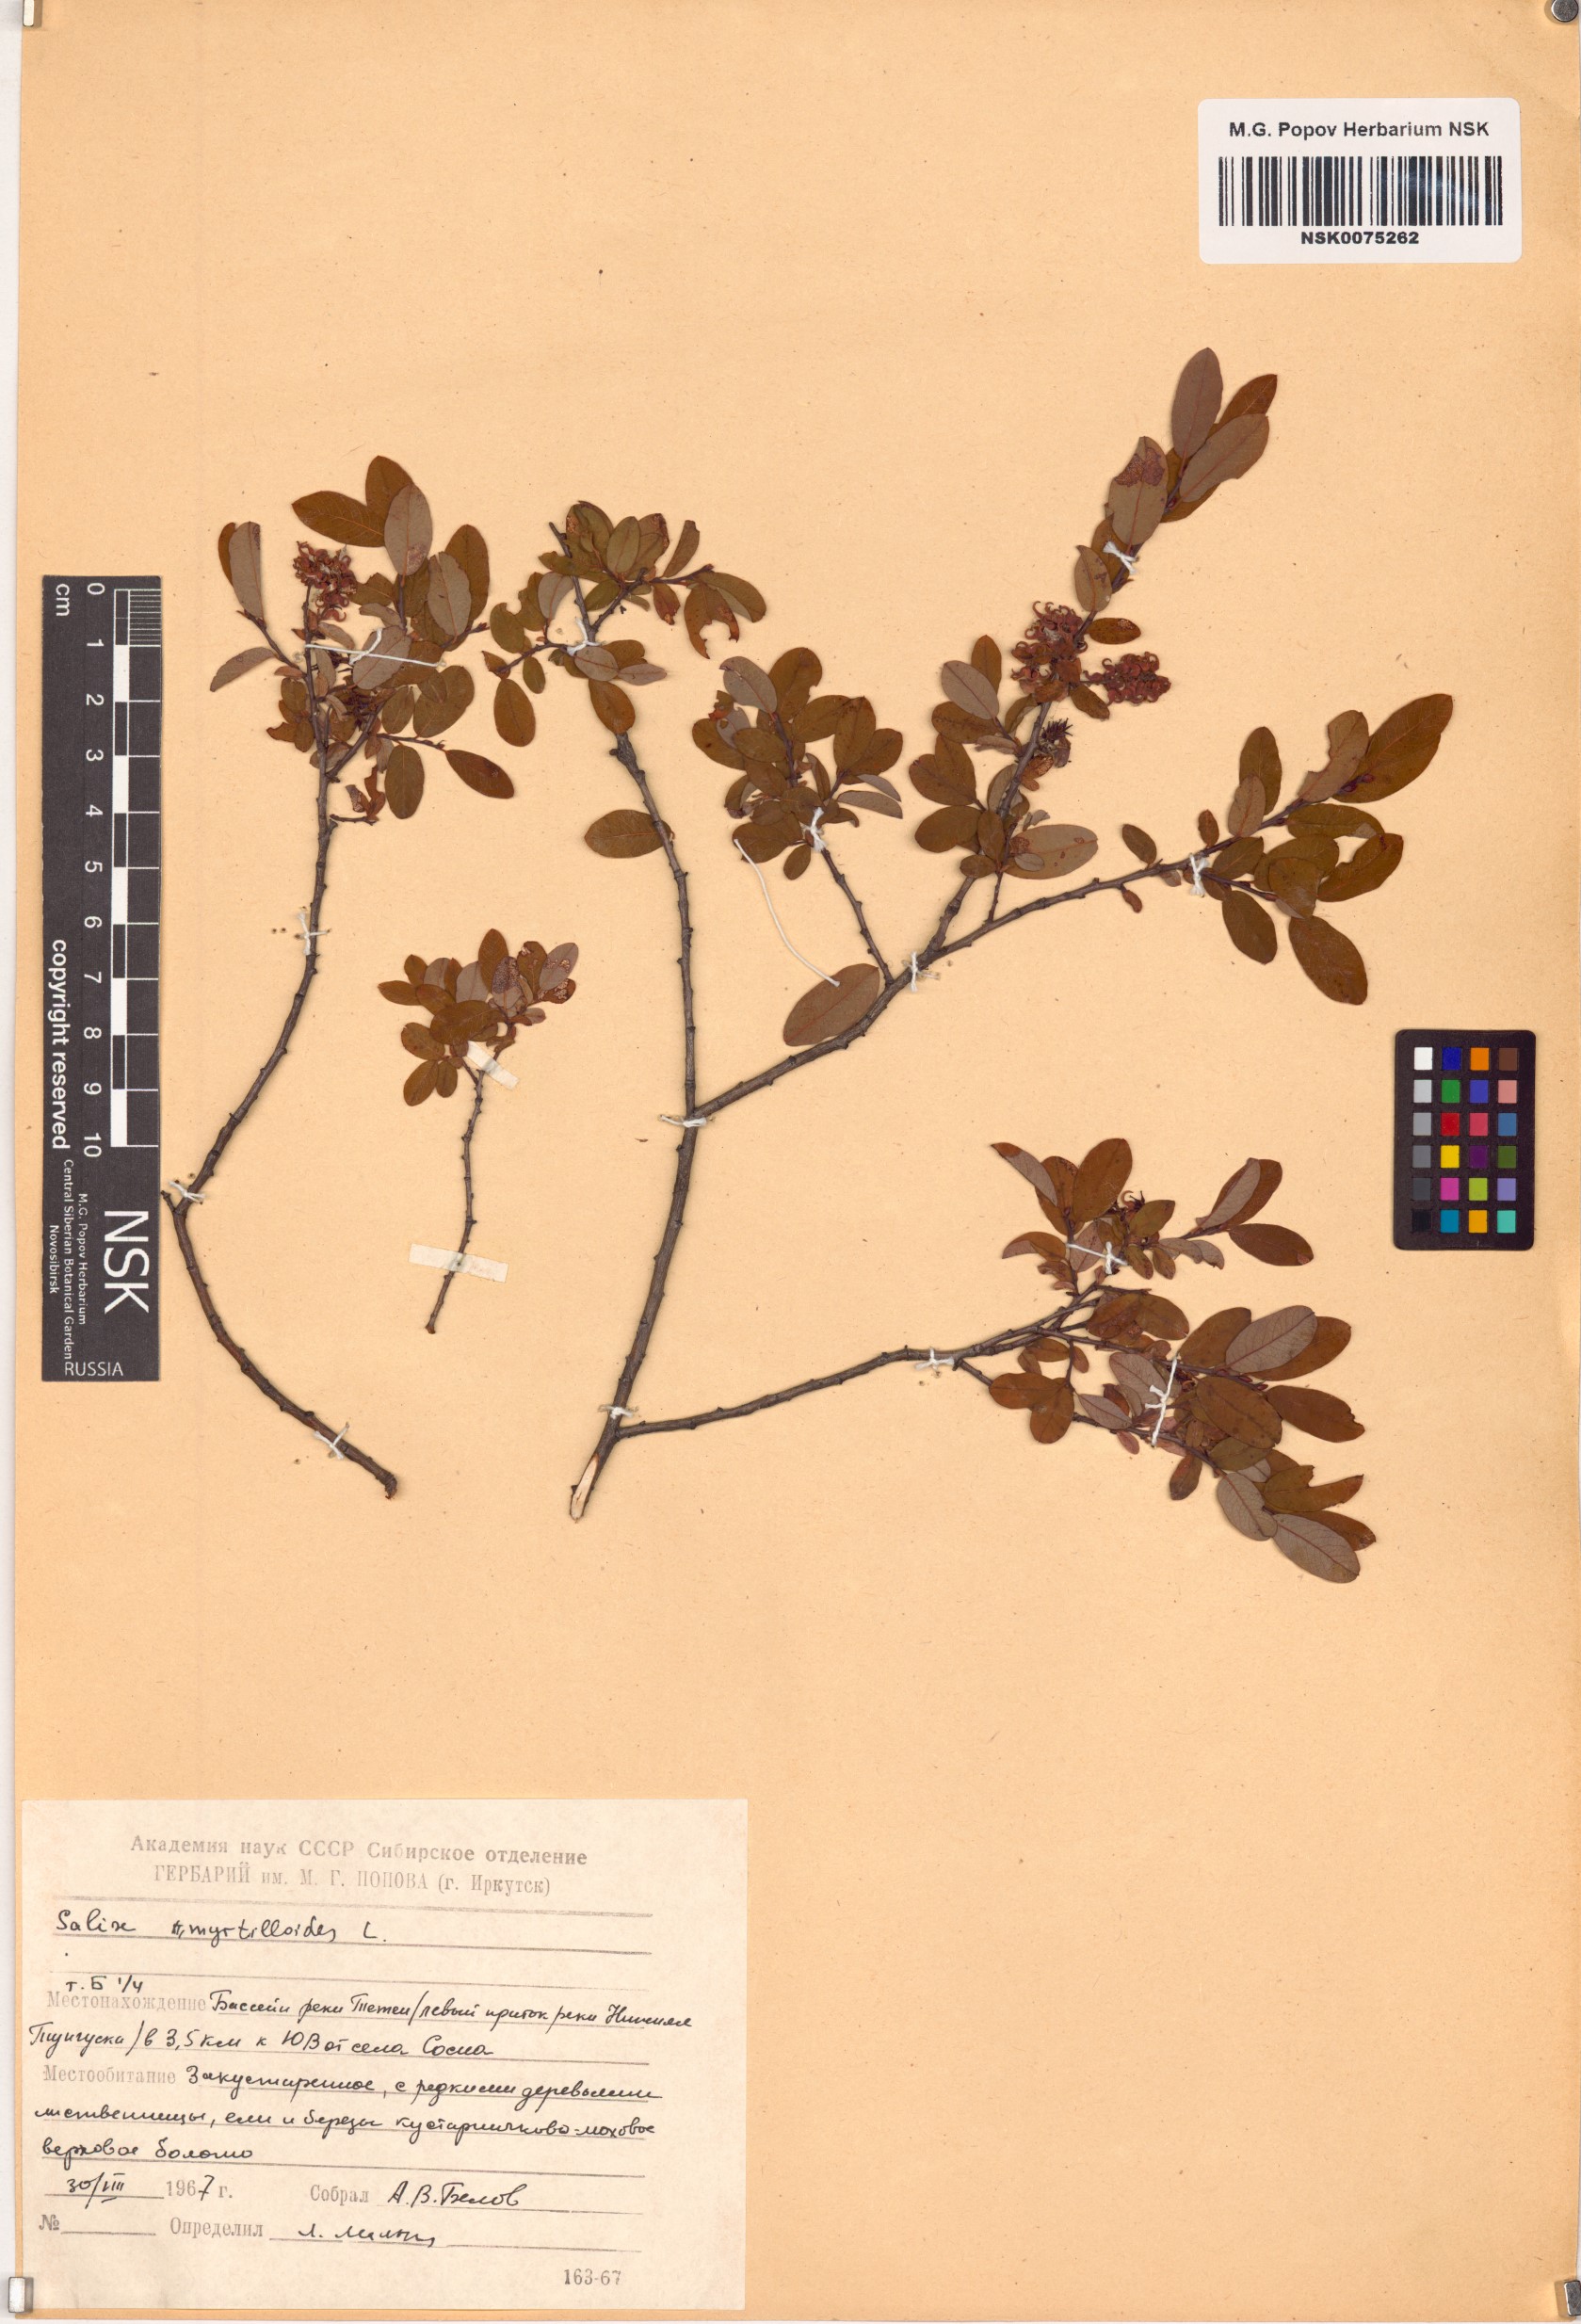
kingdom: Plantae
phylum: Tracheophyta
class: Magnoliopsida
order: Malpighiales
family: Salicaceae
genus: Salix
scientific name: Salix myrtilloides
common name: Myrtle-leaved willow
